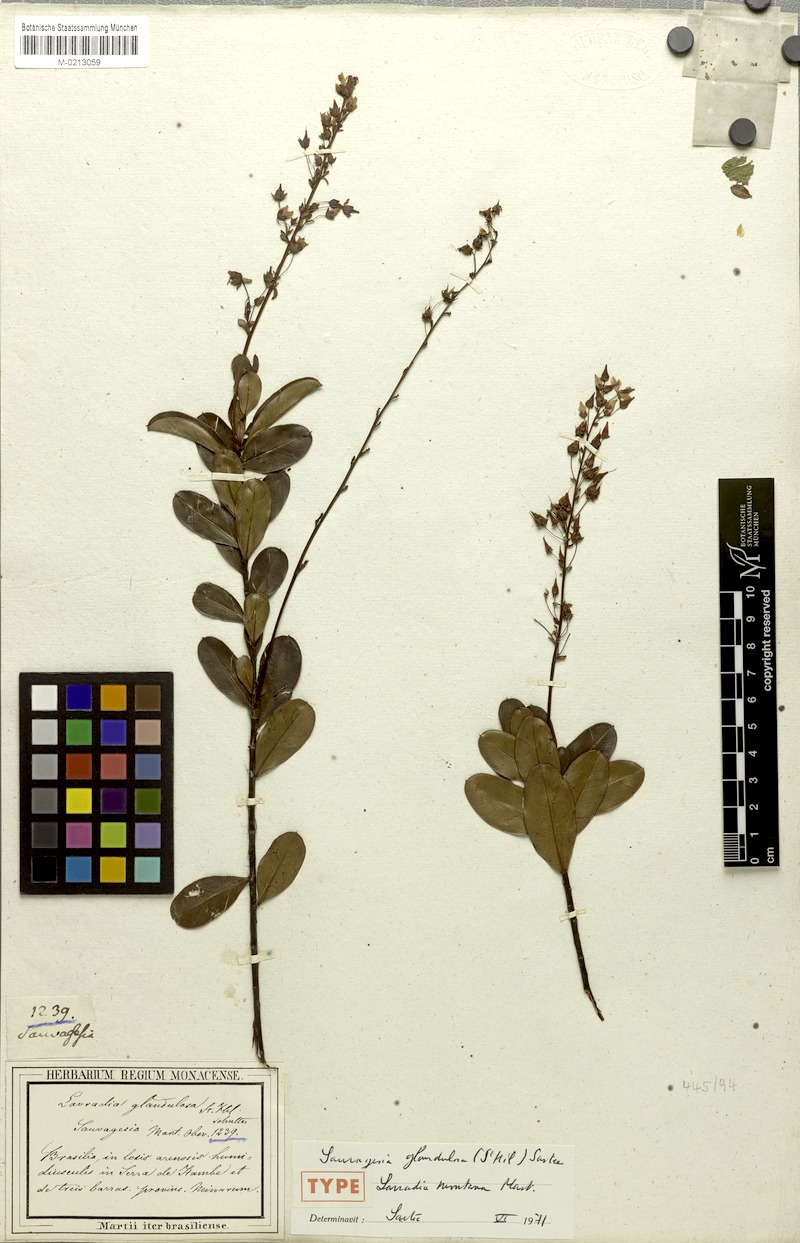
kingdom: Plantae
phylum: Tracheophyta
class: Magnoliopsida
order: Malpighiales
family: Ochnaceae
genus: Sauvagesia
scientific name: Sauvagesia glandulosa
